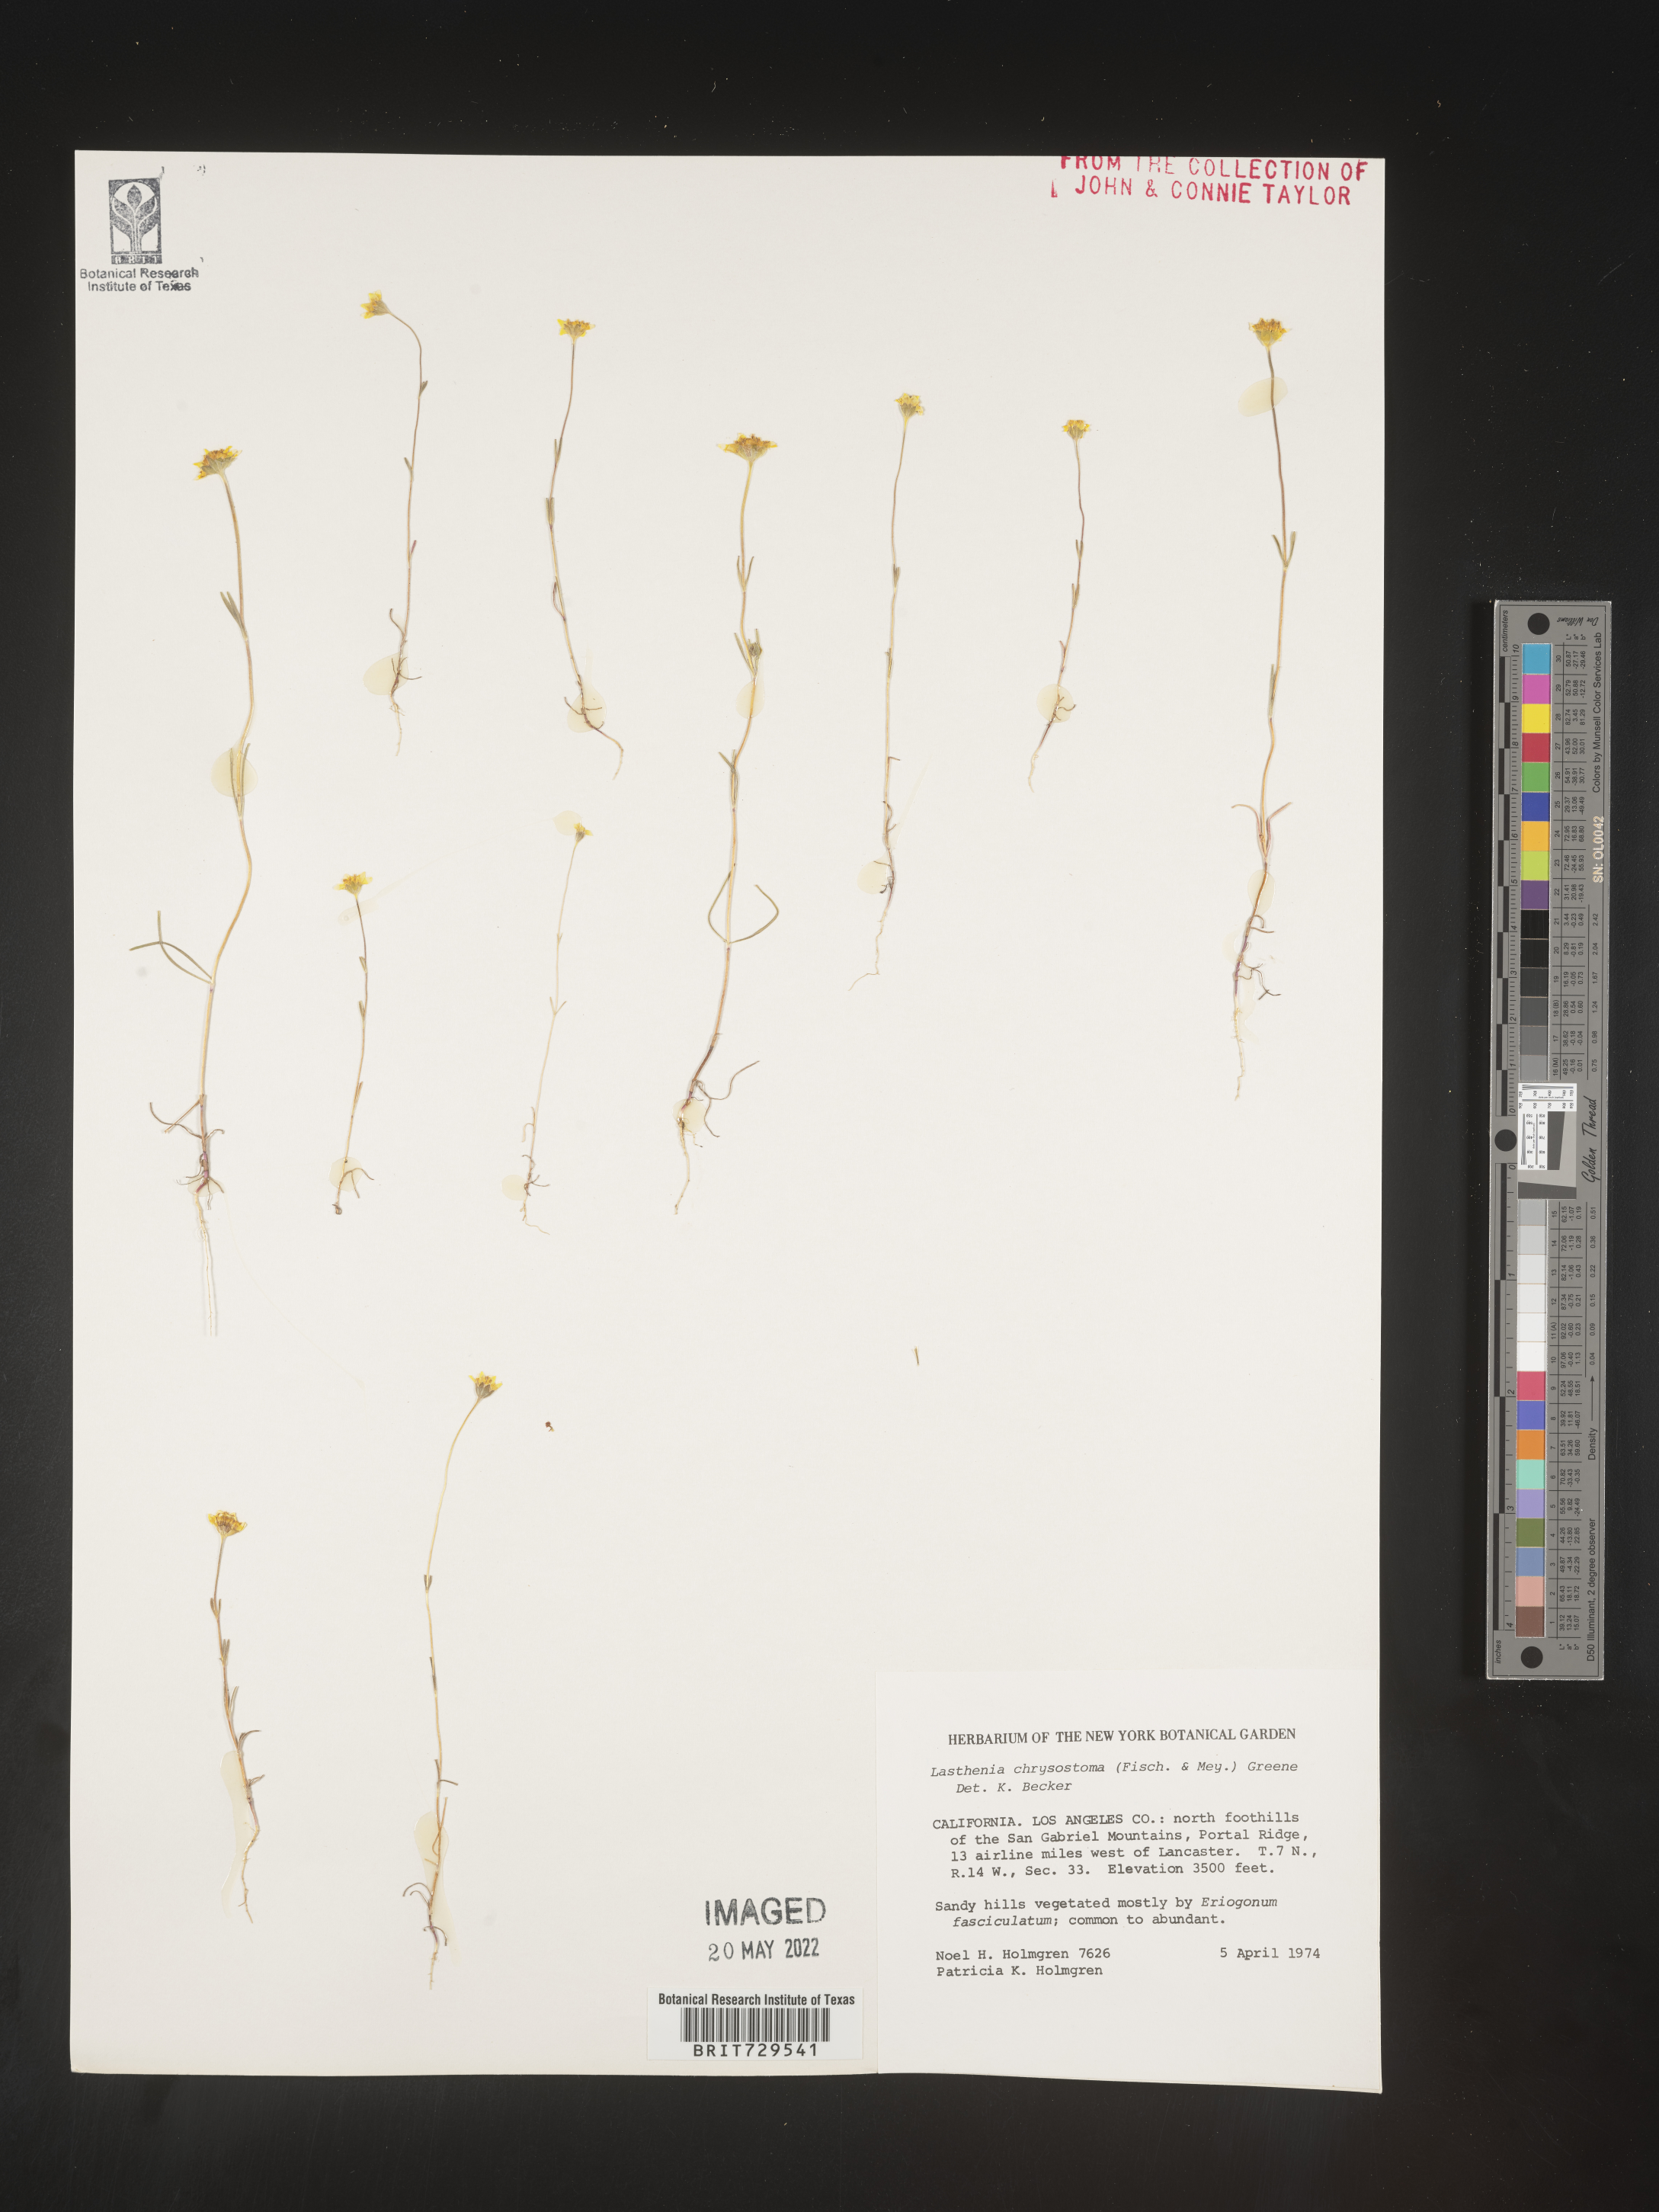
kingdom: Plantae
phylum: Tracheophyta
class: Magnoliopsida
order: Asterales
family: Asteraceae
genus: Lasthenia
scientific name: Lasthenia
